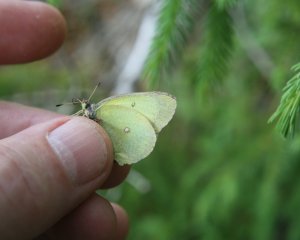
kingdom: Animalia
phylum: Arthropoda
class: Insecta
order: Lepidoptera
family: Pieridae
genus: Colias
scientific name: Colias interior
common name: Pink-edged Sulphur
